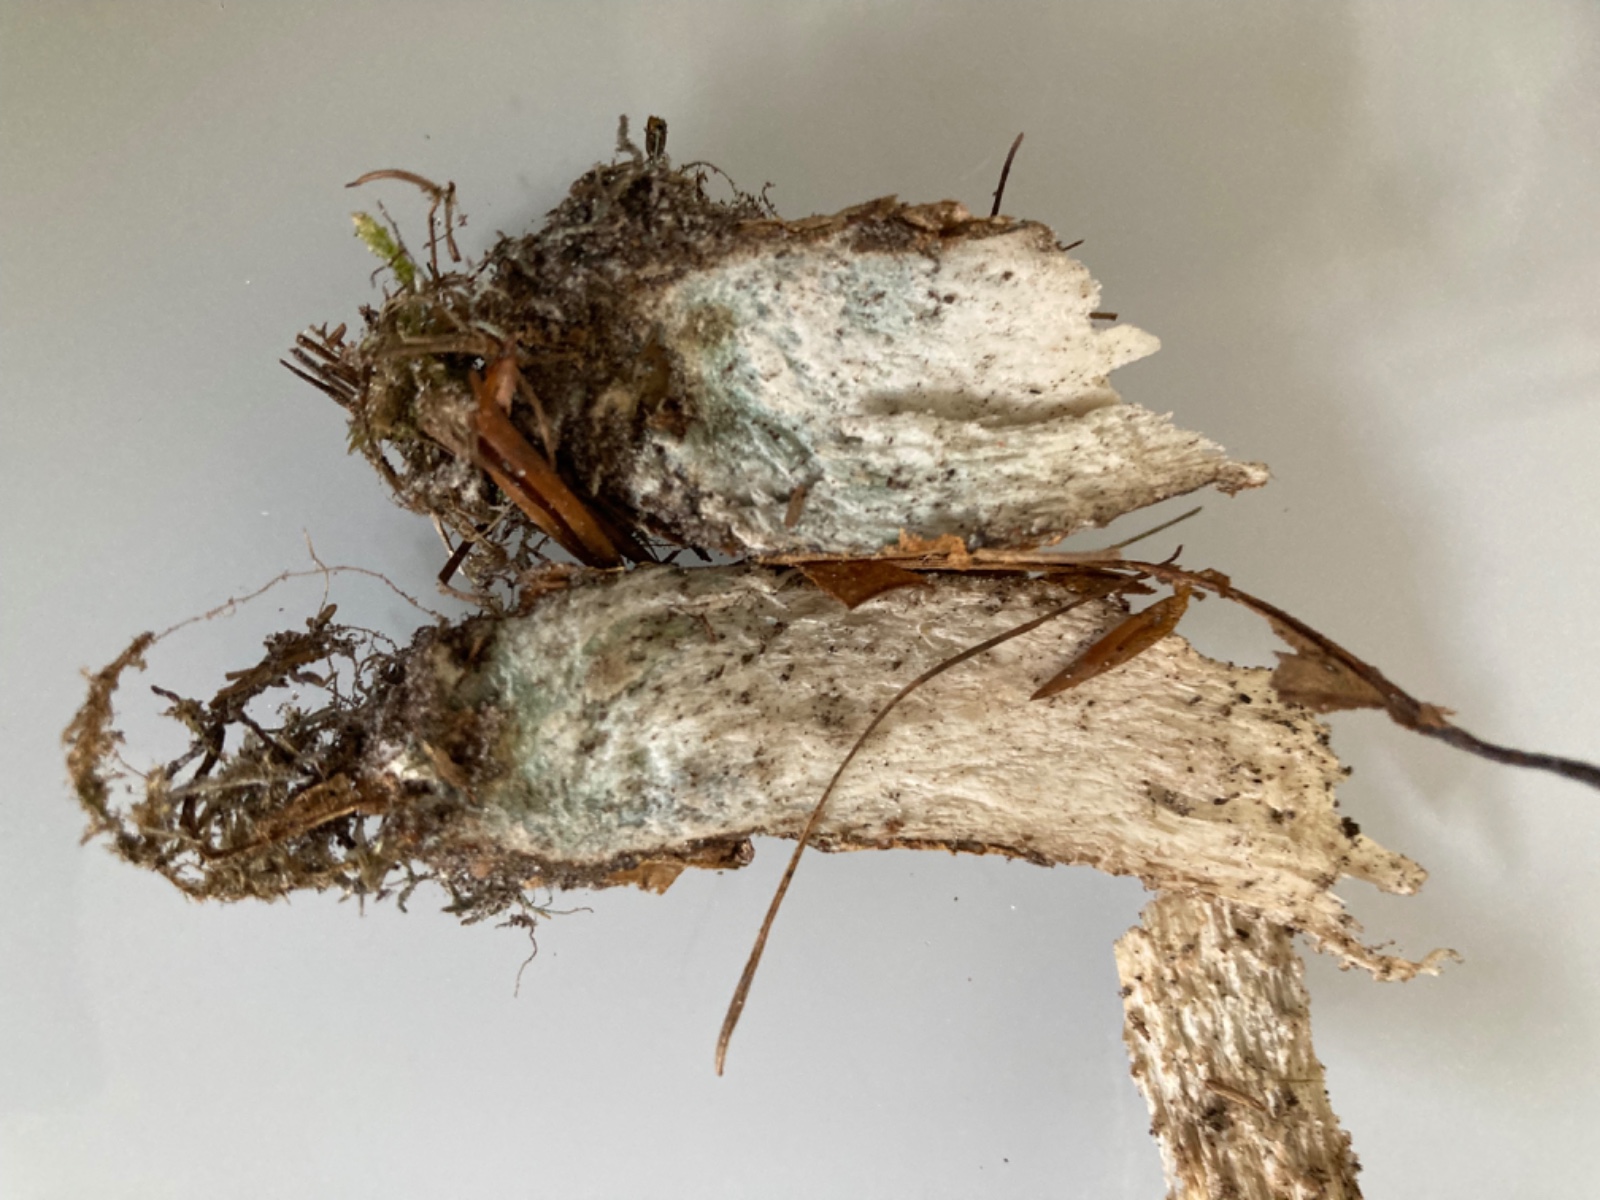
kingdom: Fungi
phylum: Basidiomycota
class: Agaricomycetes
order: Boletales
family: Boletaceae
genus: Leccinum
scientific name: Leccinum scabrum
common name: hvid skælrørhat
